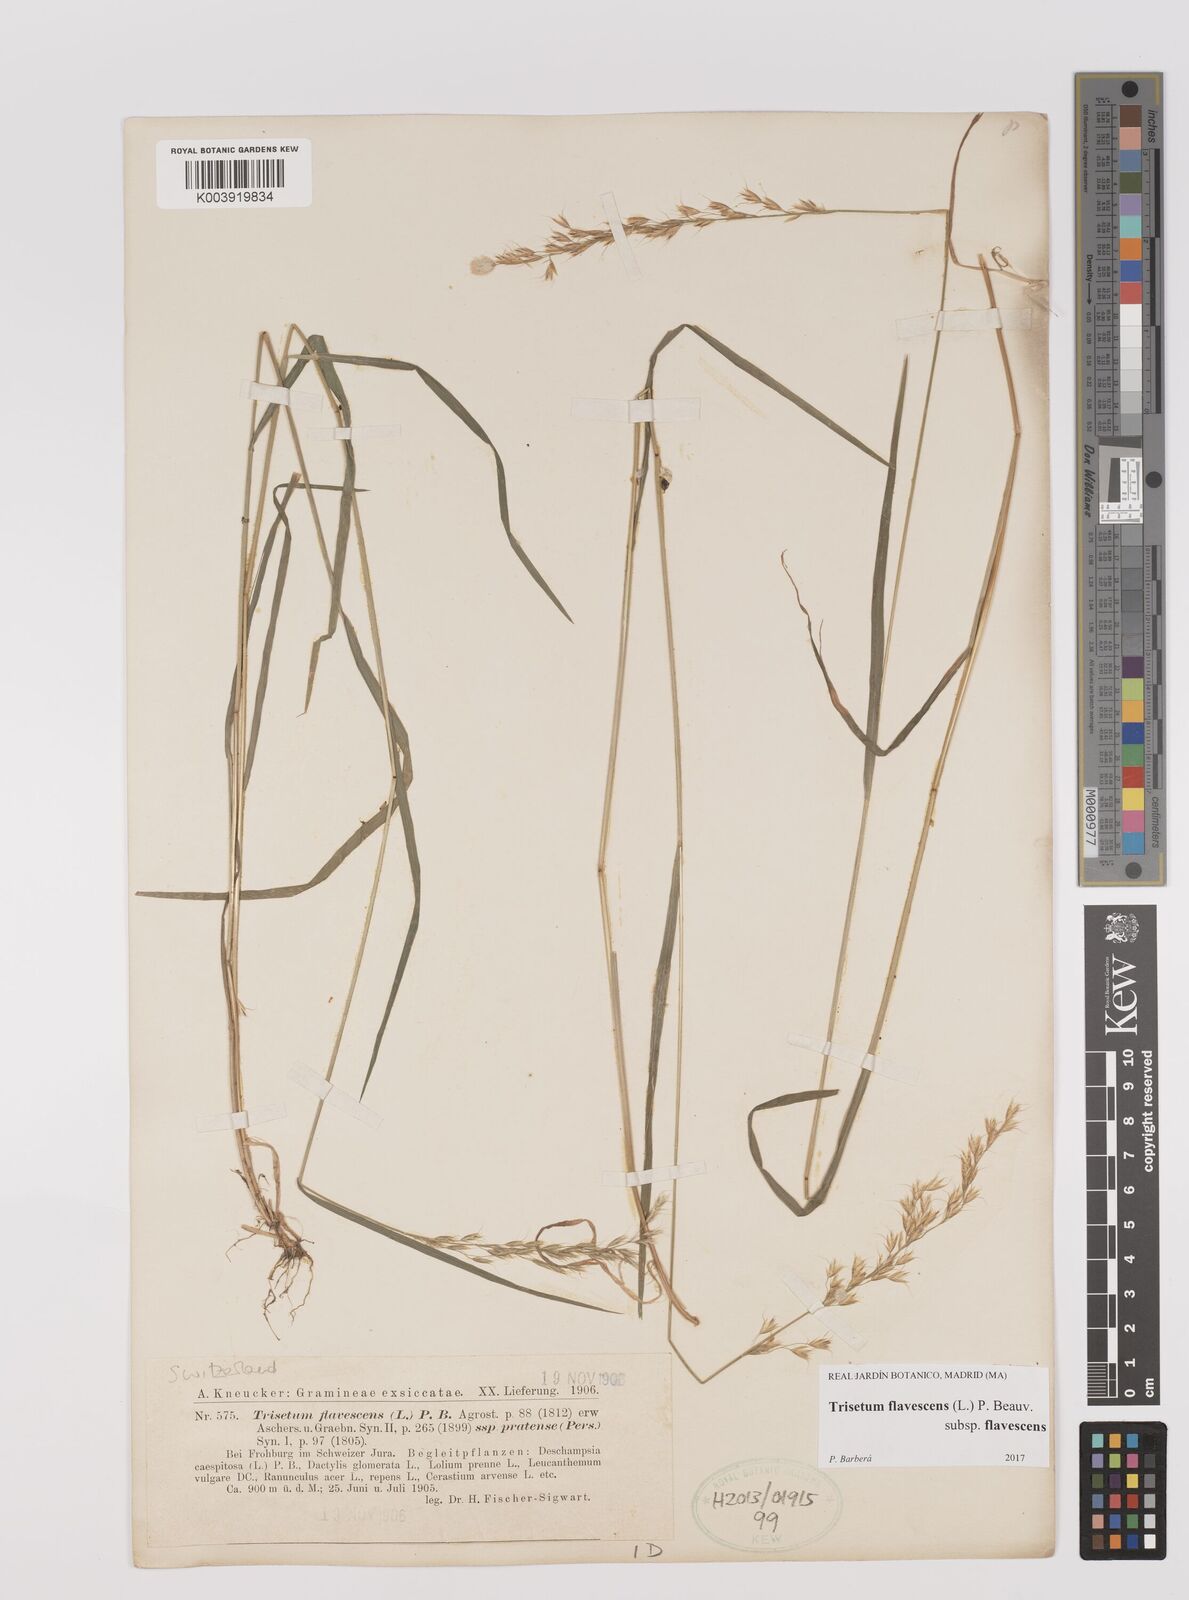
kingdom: Plantae
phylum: Tracheophyta
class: Liliopsida
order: Poales
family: Poaceae
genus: Trisetum
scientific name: Trisetum flavescens
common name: Yellow oat-grass
